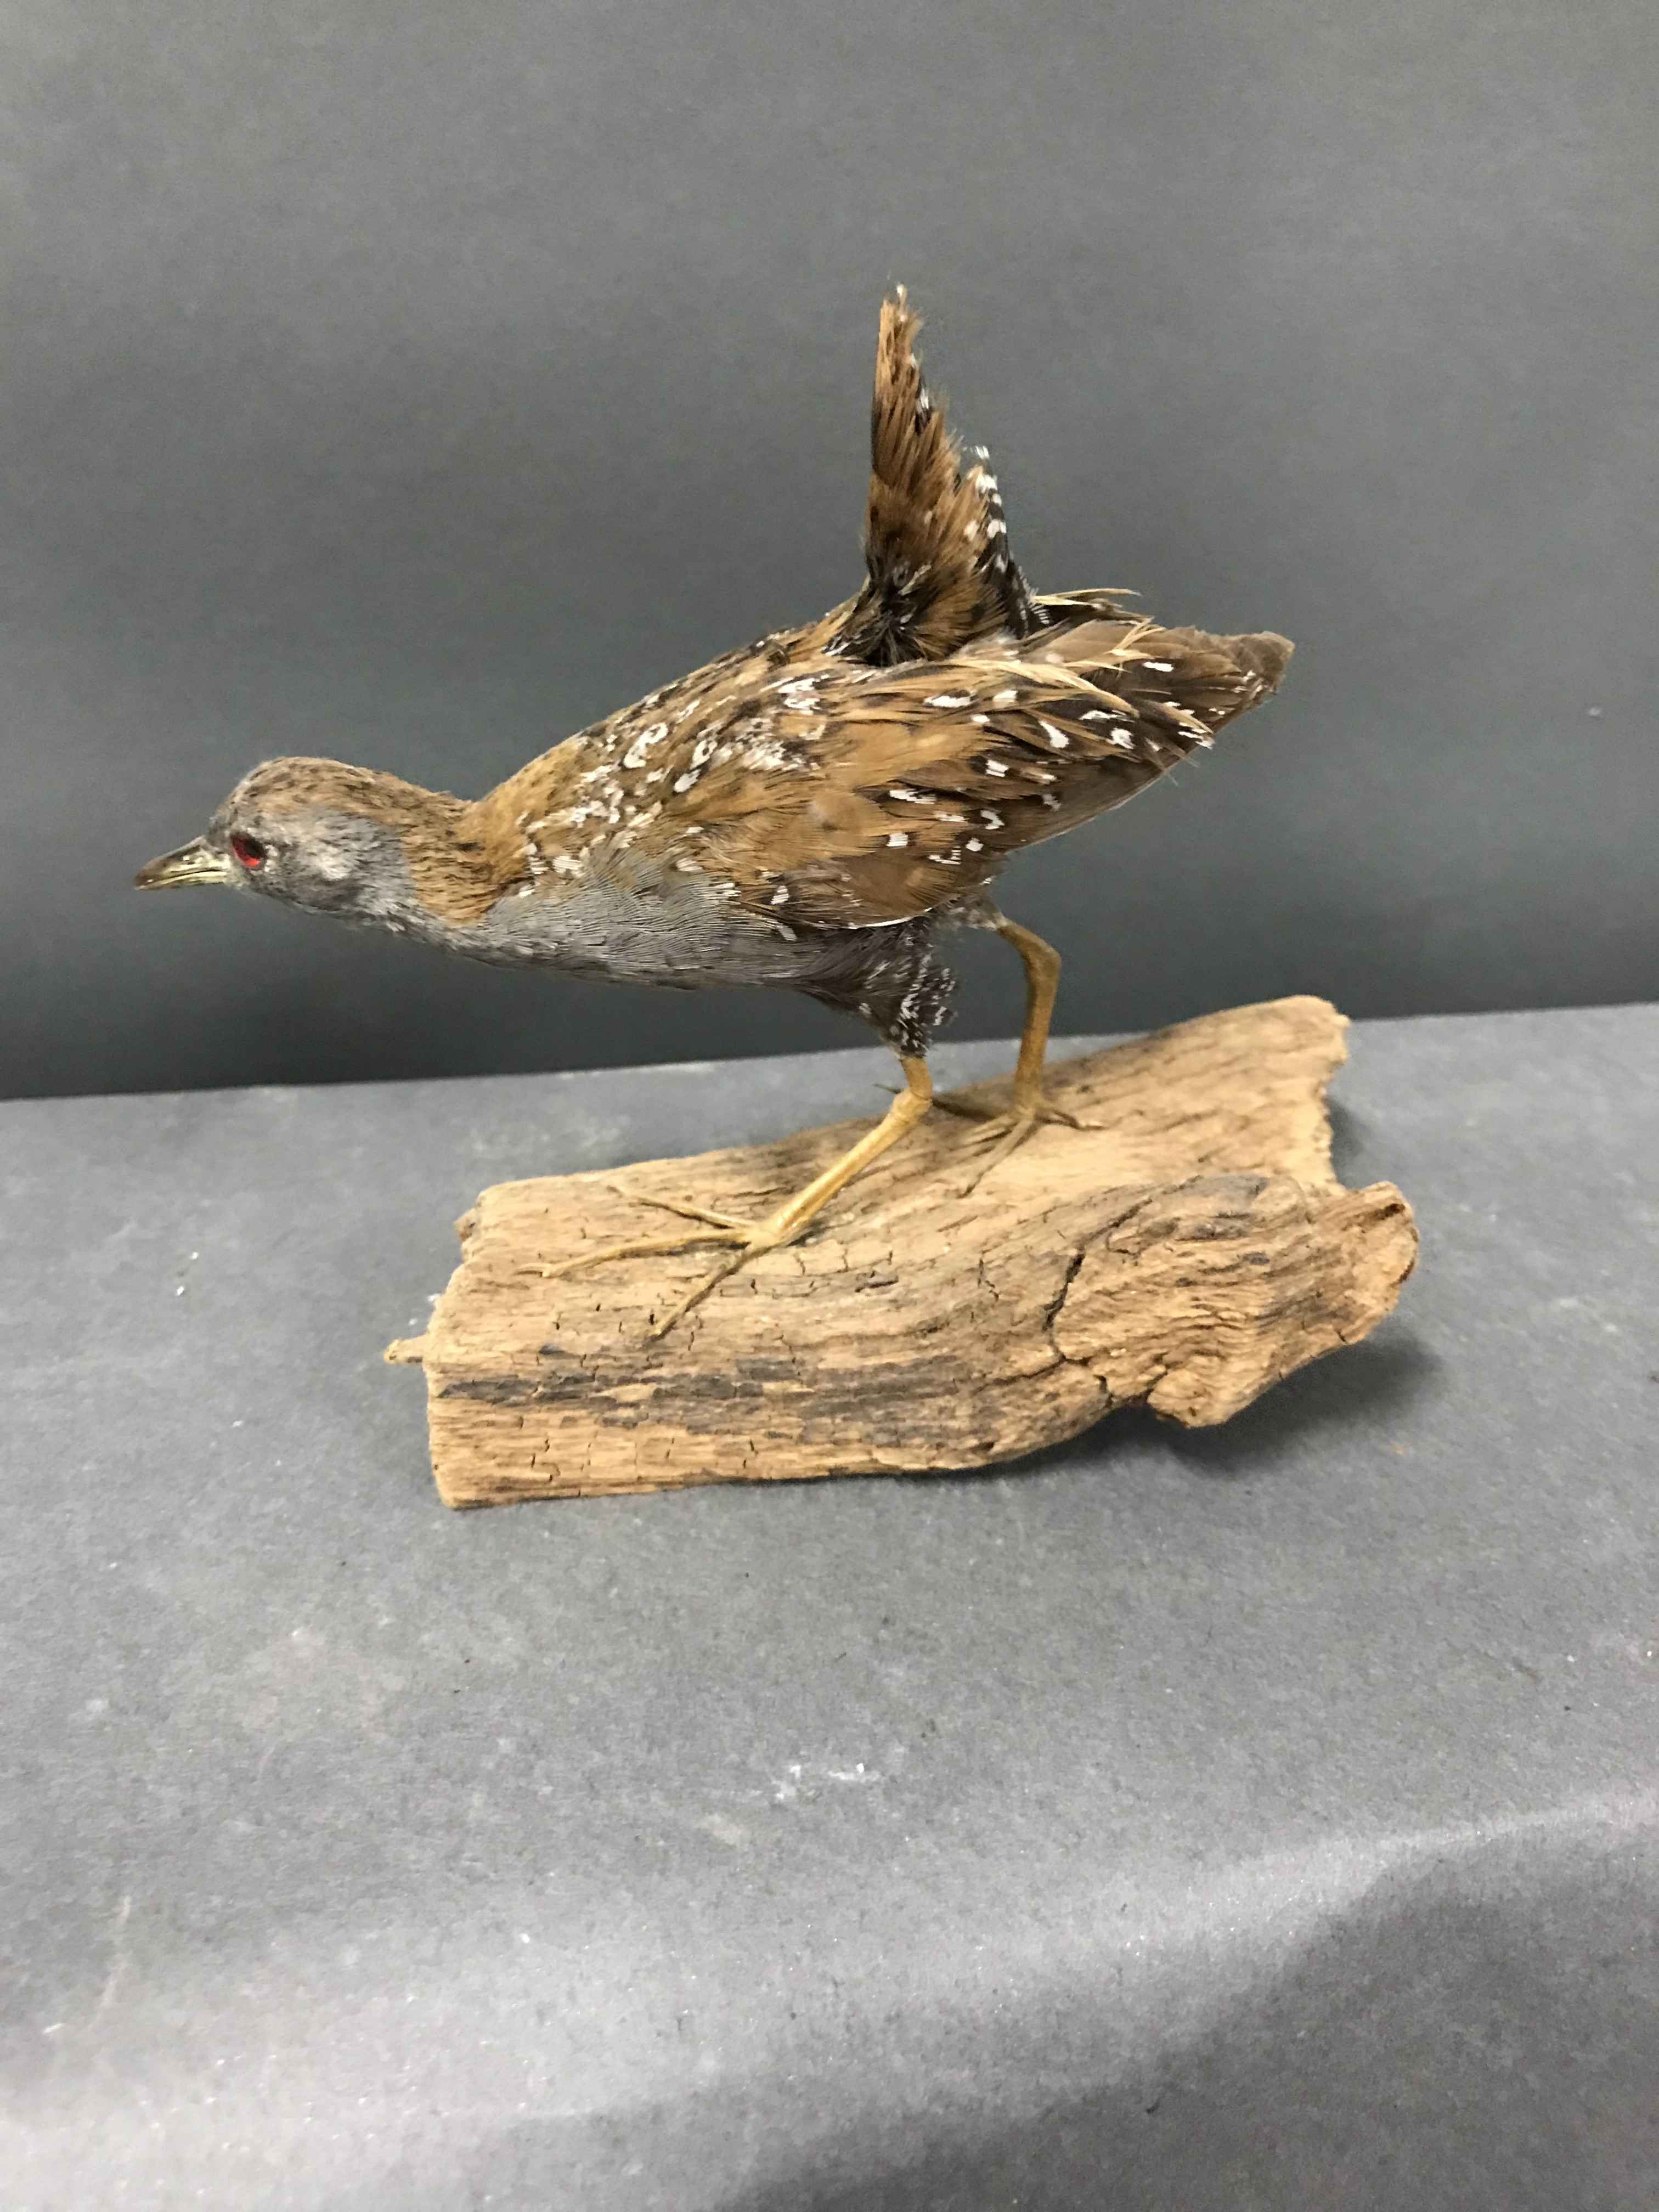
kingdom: Animalia
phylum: Chordata
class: Aves
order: Gruiformes
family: Rallidae
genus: Porzana
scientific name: Porzana pusilla
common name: Baillon's crake
